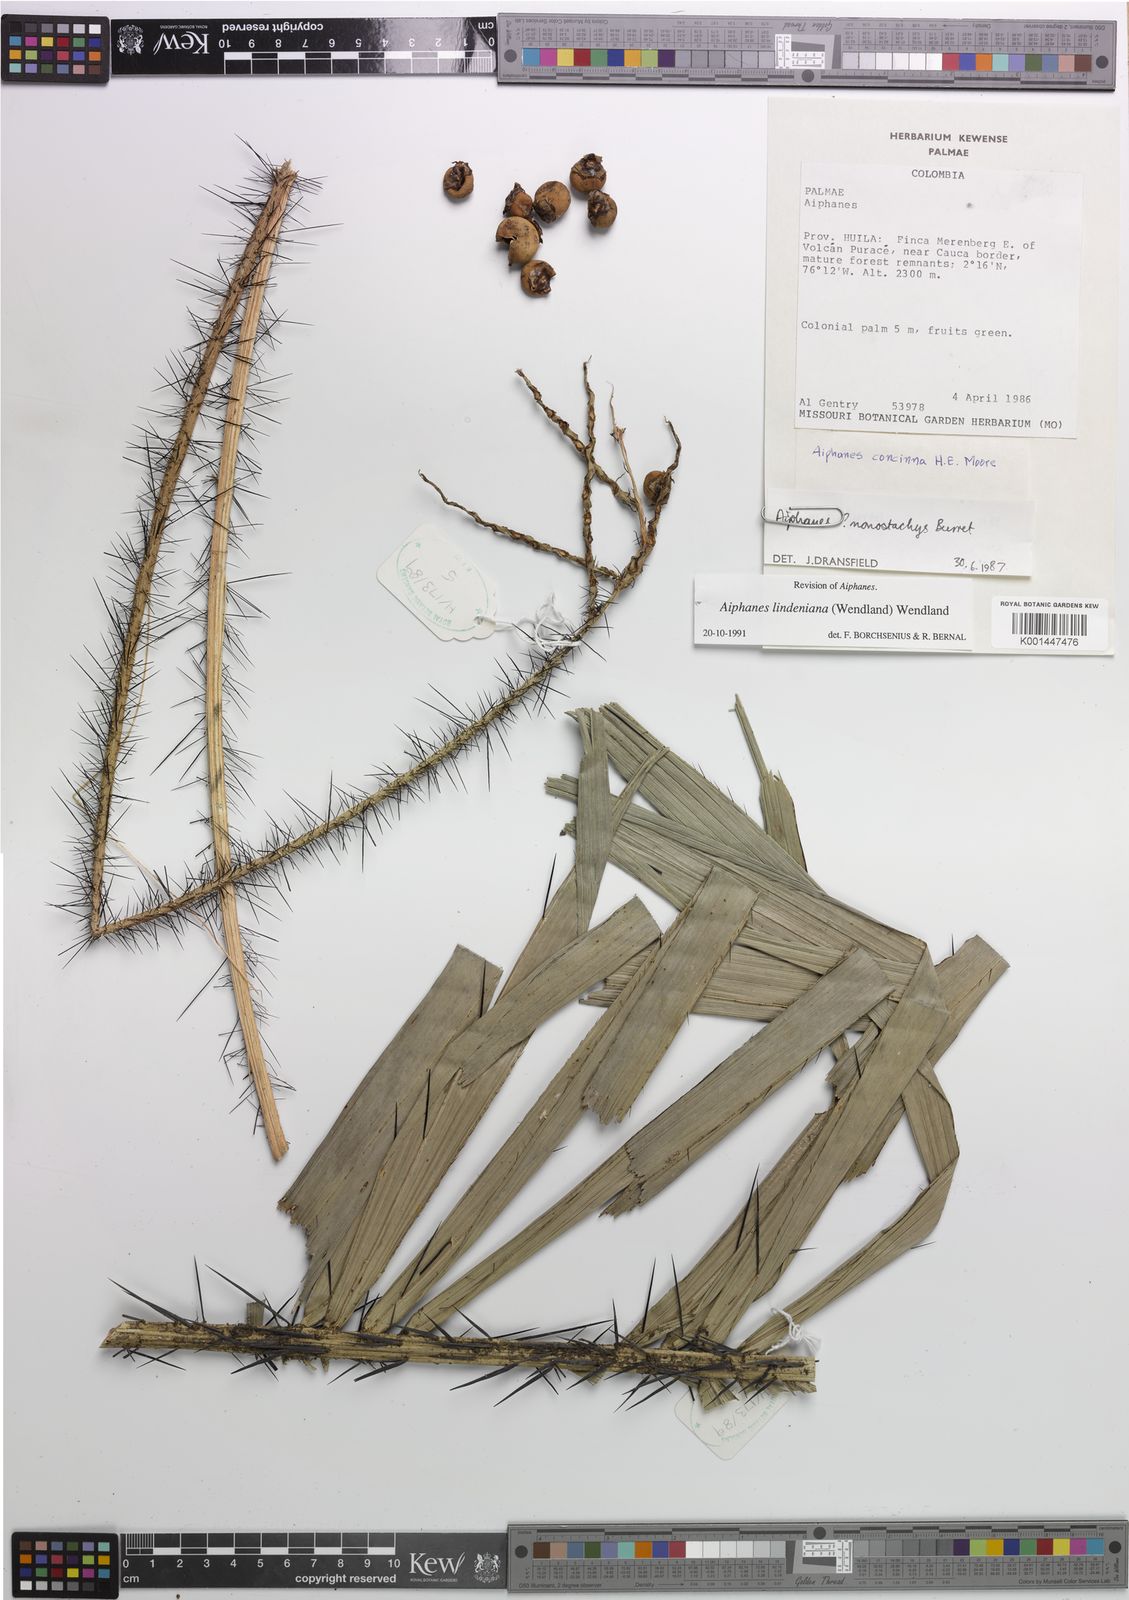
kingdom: Plantae
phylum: Tracheophyta
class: Liliopsida
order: Arecales
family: Arecaceae
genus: Aiphanes
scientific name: Aiphanes lindeniana
